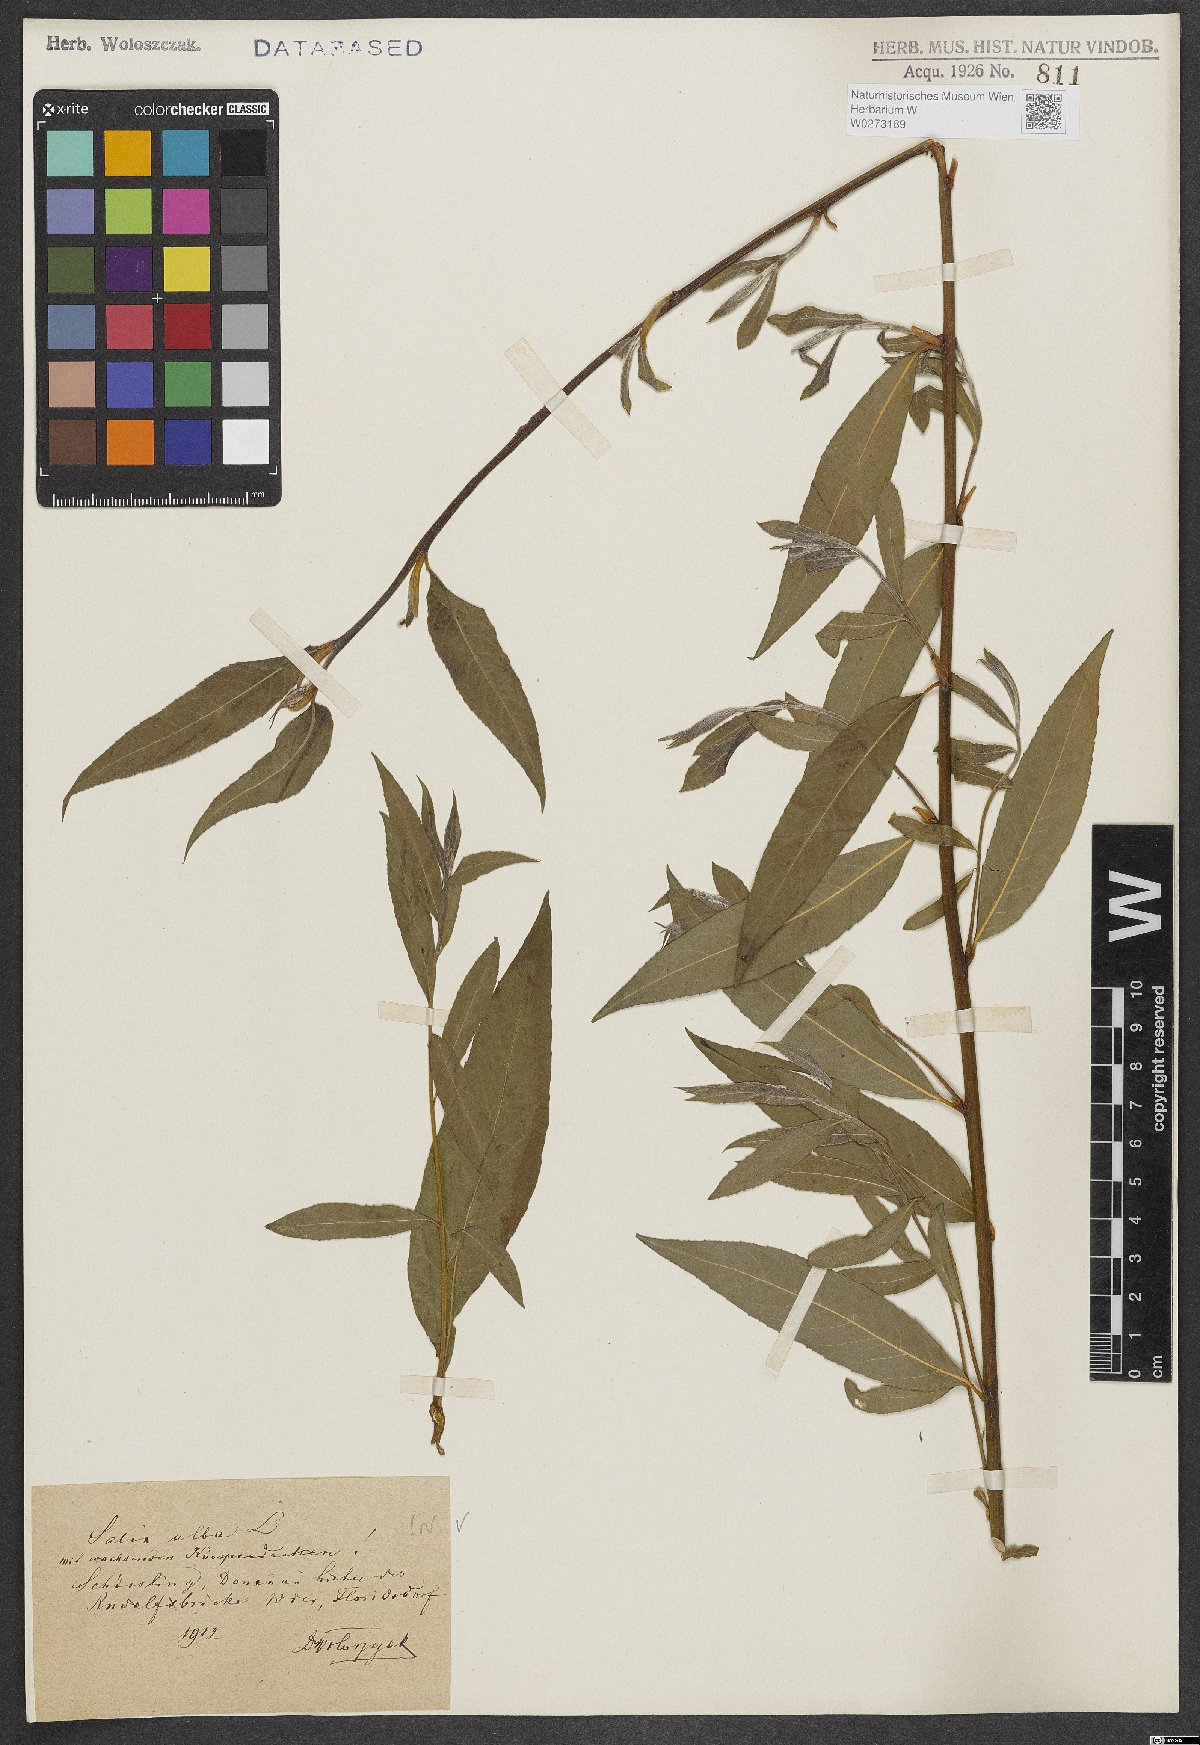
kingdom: Plantae
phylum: Tracheophyta
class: Magnoliopsida
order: Malpighiales
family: Salicaceae
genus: Salix
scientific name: Salix alba
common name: White willow
